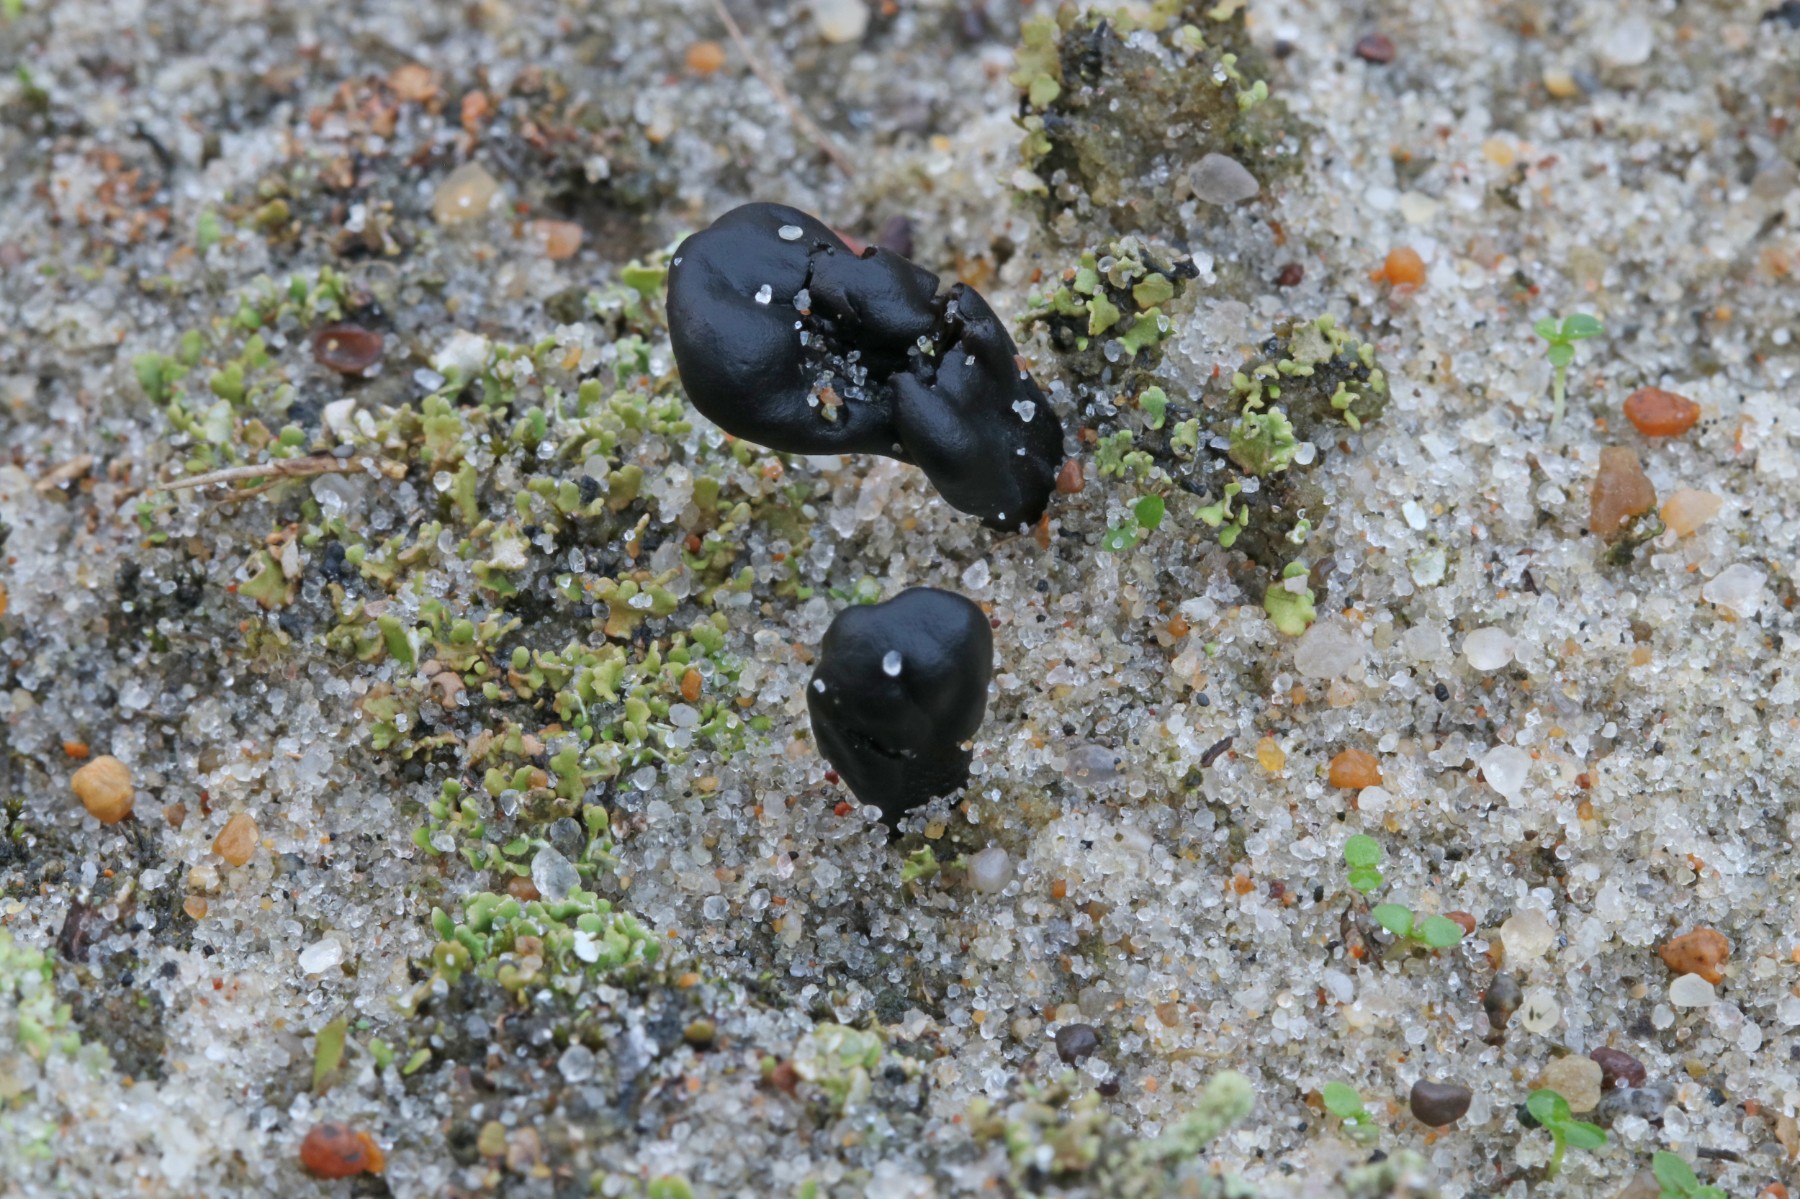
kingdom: Fungi
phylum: Ascomycota
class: Geoglossomycetes
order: Geoglossales
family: Geoglossaceae
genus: Sabuloglossum
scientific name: Sabuloglossum arenarium
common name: klit-jordtunge
